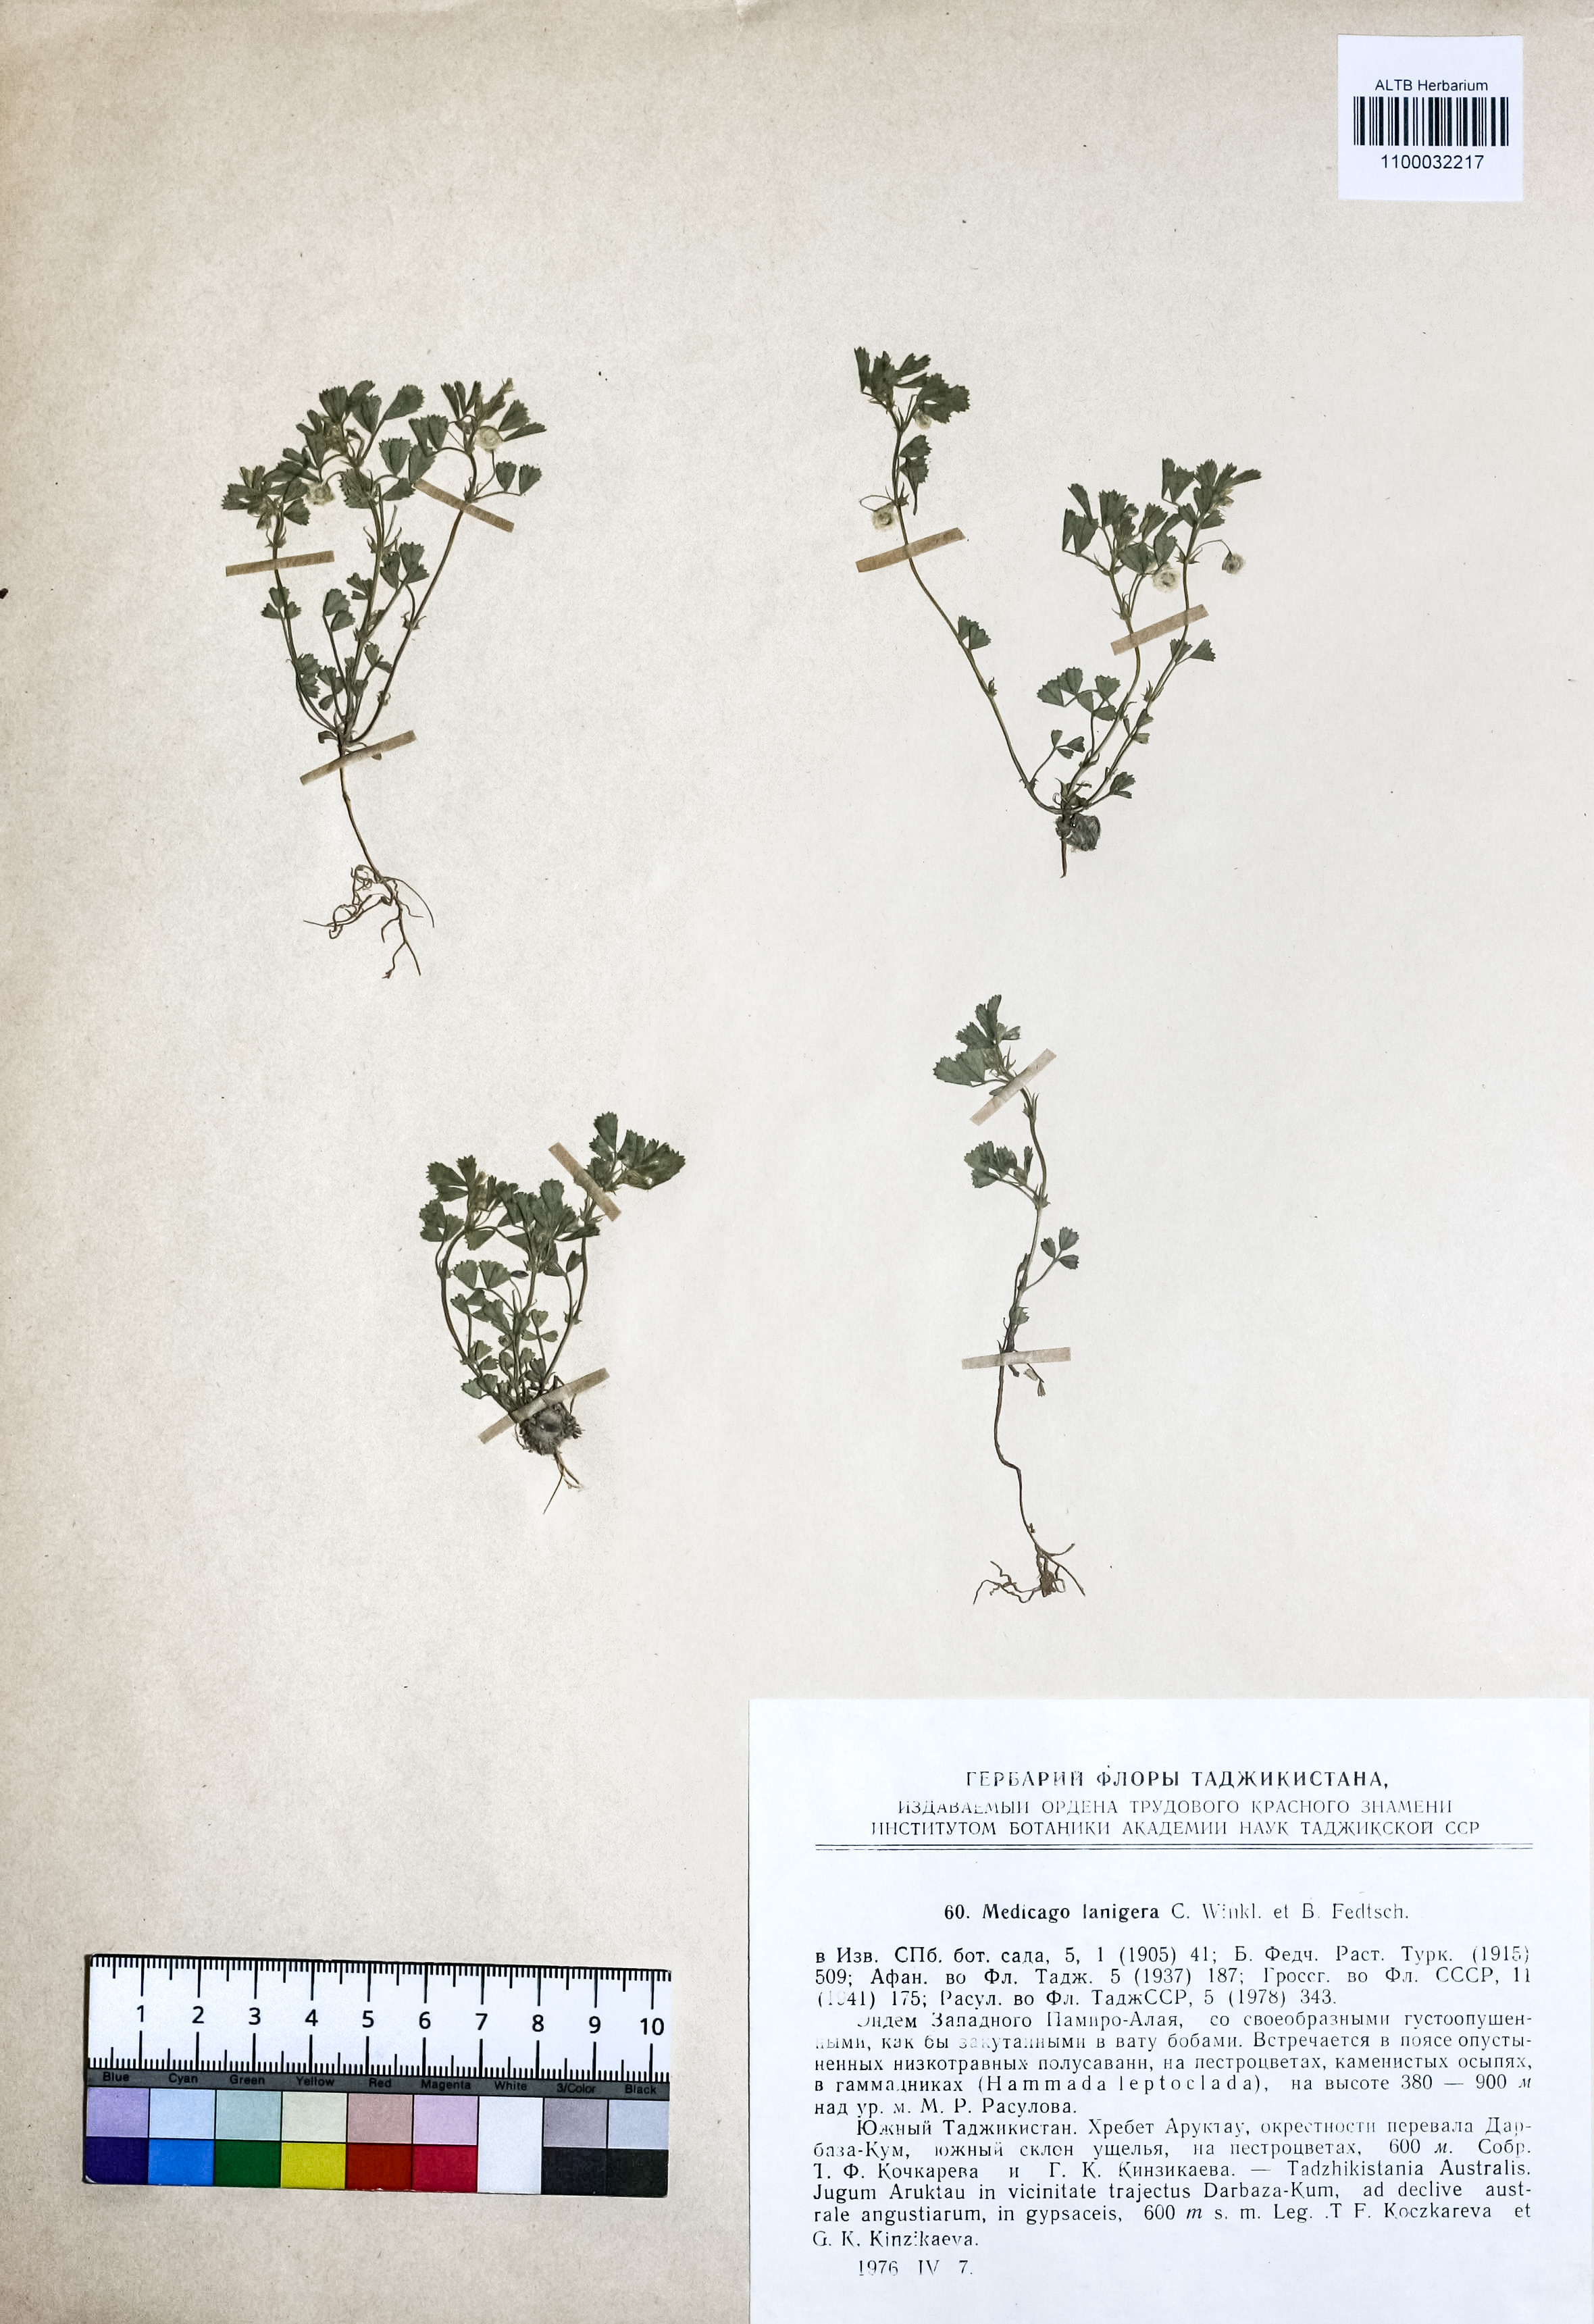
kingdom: Plantae
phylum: Tracheophyta
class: Magnoliopsida
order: Fabales
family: Fabaceae
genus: Medicago
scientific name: Medicago lanigera
